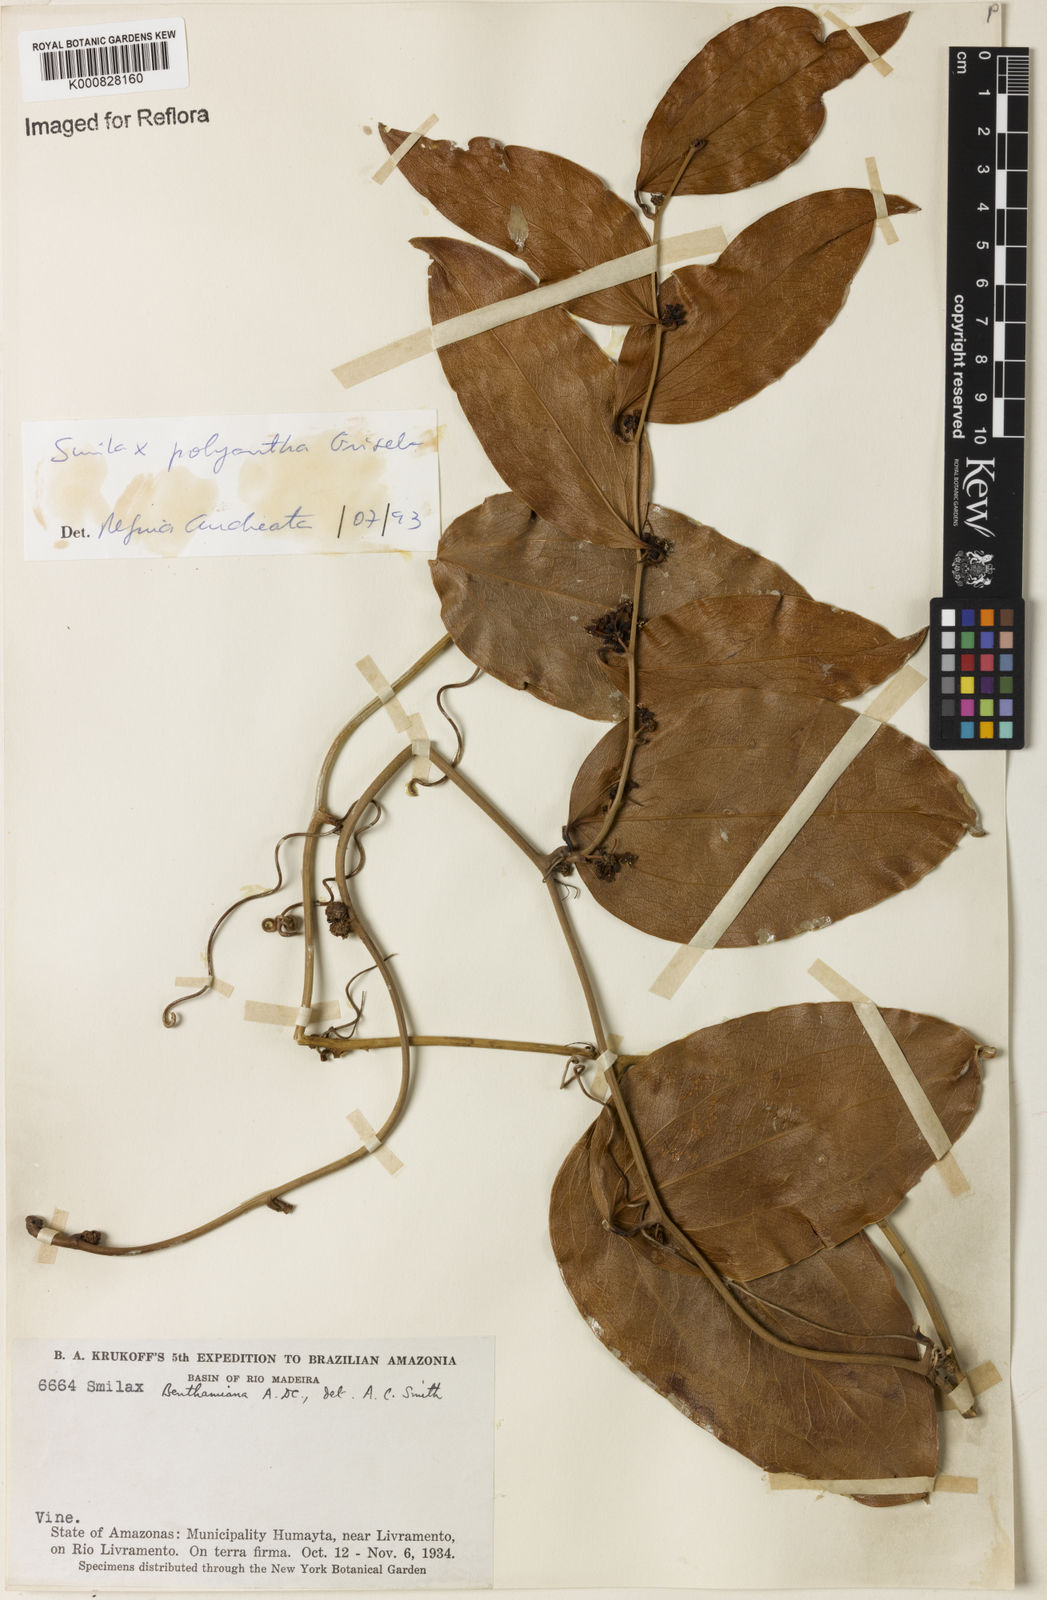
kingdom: Plantae
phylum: Tracheophyta
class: Liliopsida
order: Liliales
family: Smilacaceae
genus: Smilax
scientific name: Smilax polyantha
